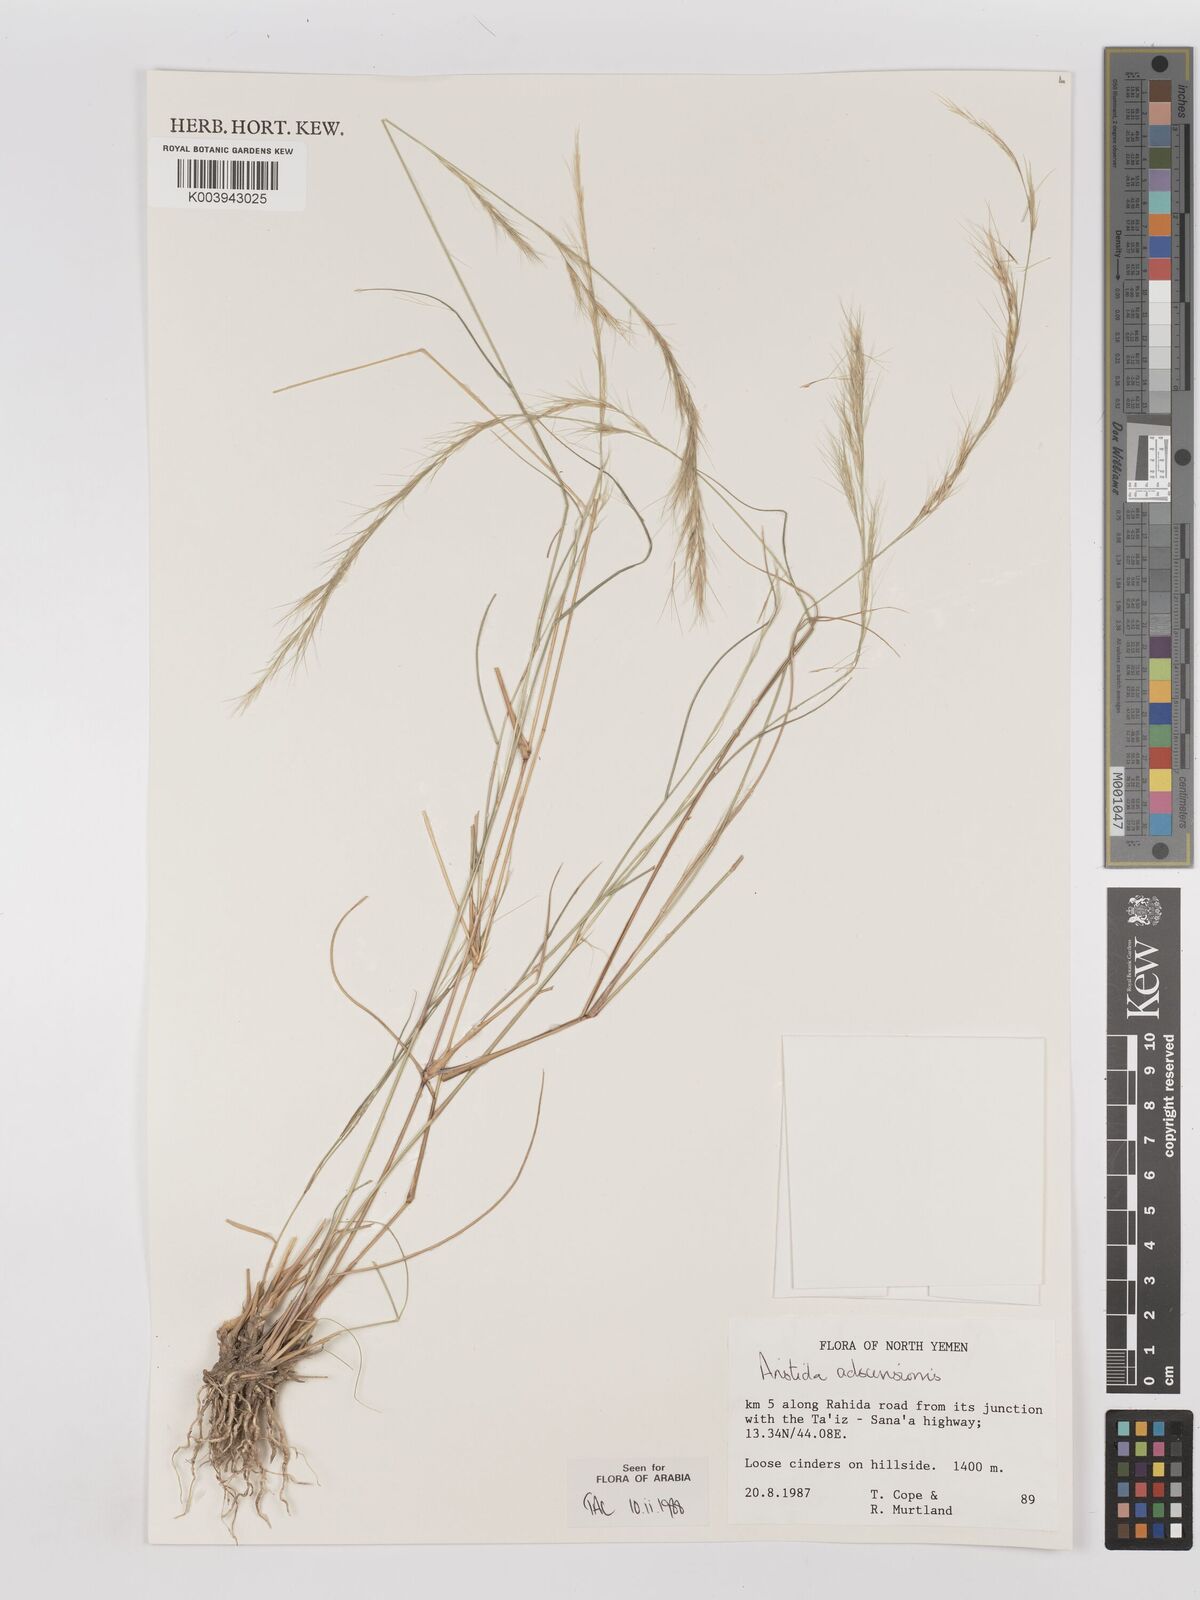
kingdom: Plantae
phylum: Tracheophyta
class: Liliopsida
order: Poales
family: Poaceae
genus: Aristida
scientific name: Aristida adscensionis
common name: Sixweeks threeawn
